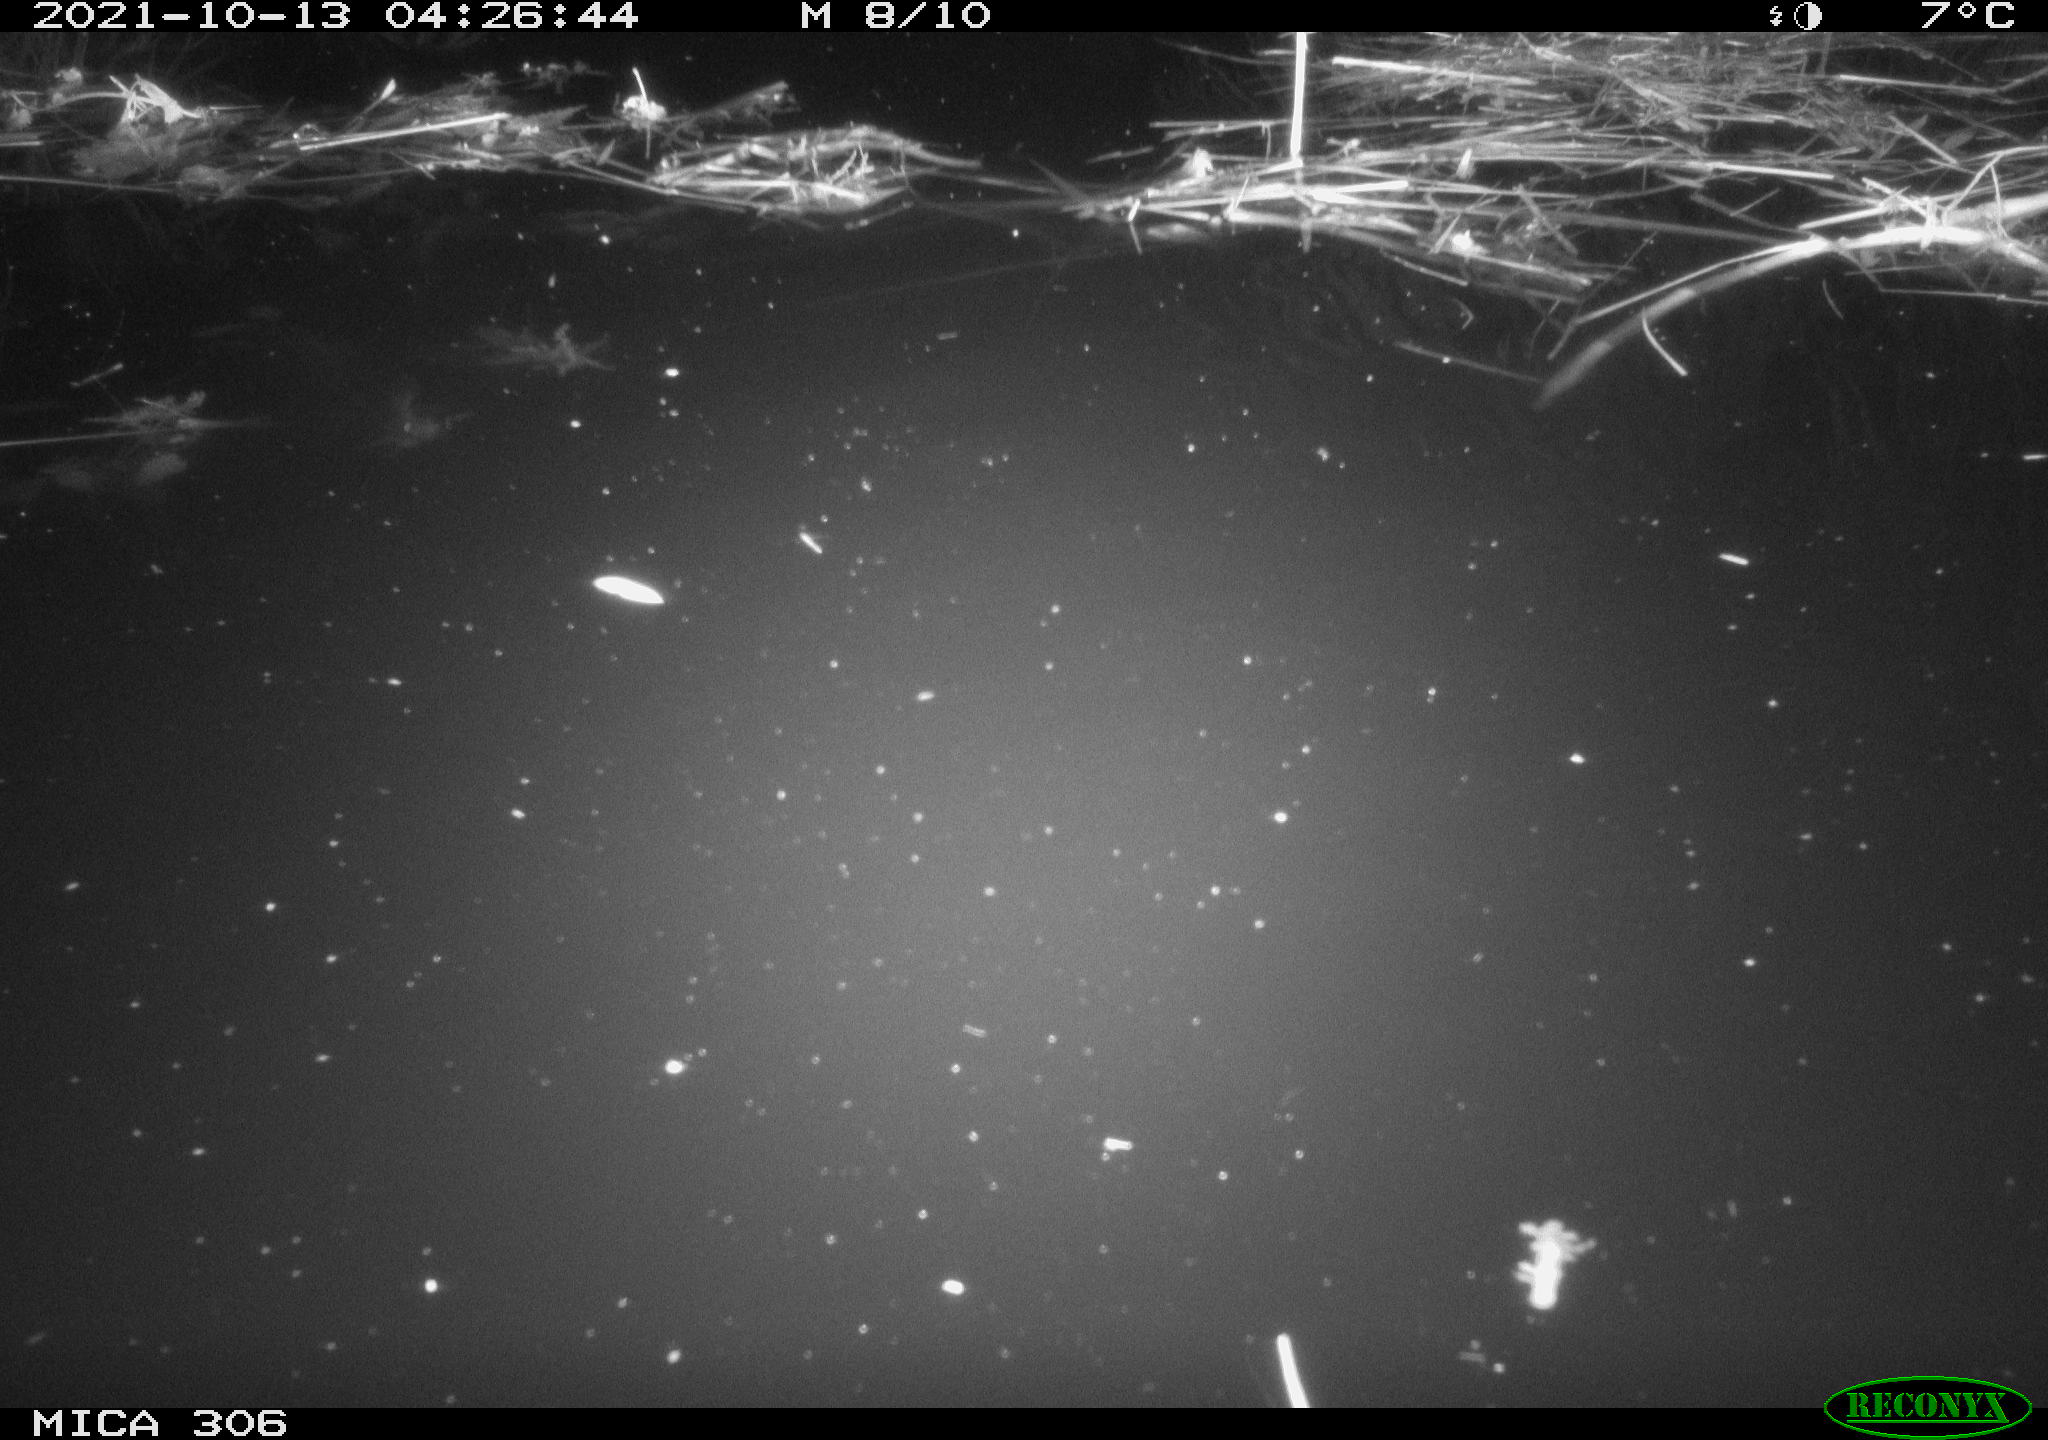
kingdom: Animalia
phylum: Chordata
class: Mammalia
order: Rodentia
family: Cricetidae
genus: Ondatra
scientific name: Ondatra zibethicus
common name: Muskrat
